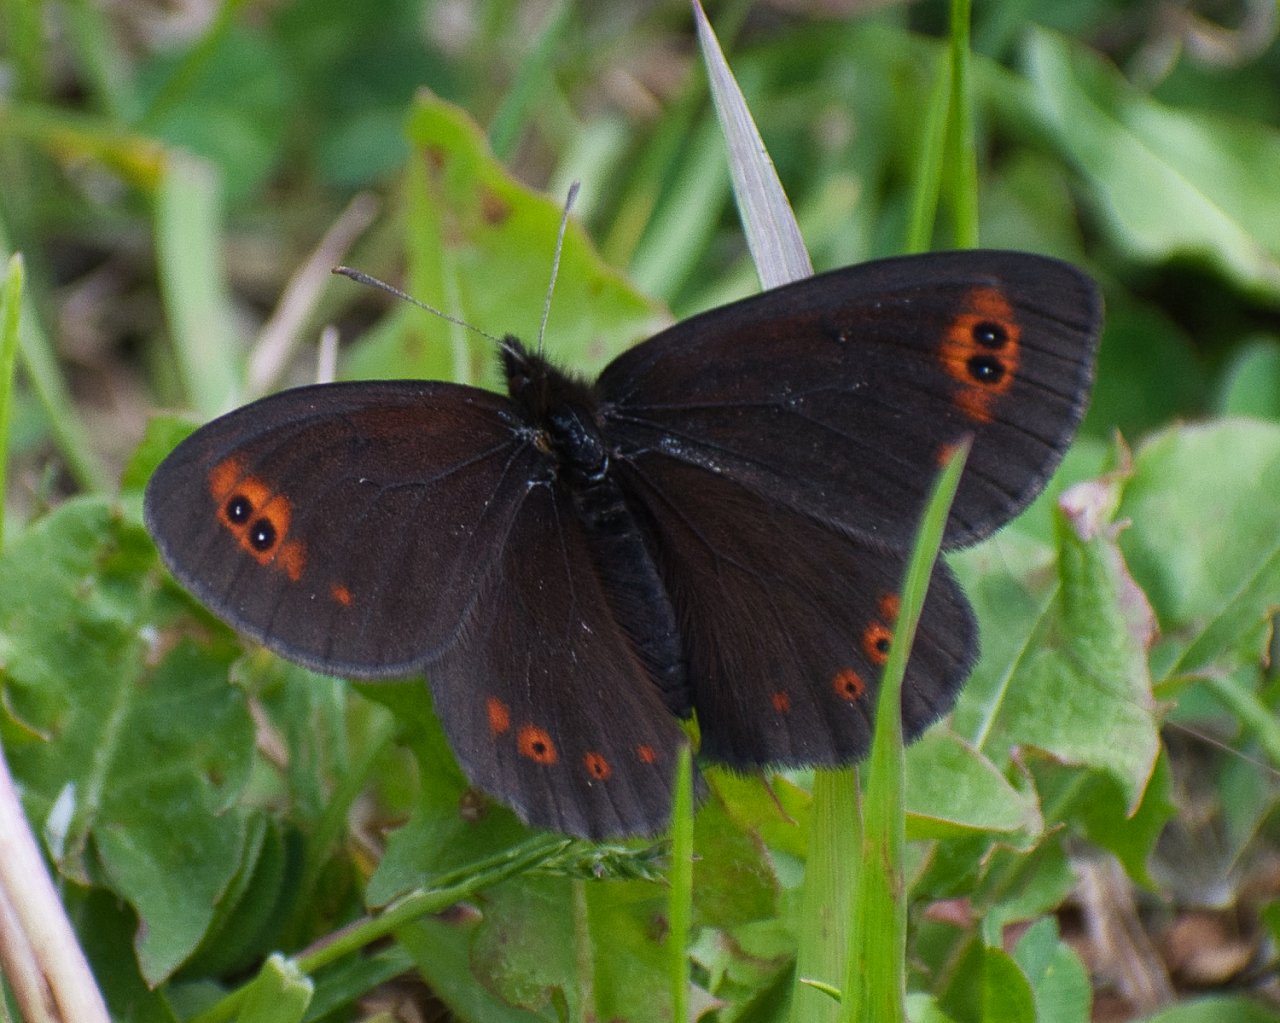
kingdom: Animalia
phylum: Arthropoda
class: Insecta
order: Lepidoptera
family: Nymphalidae
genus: Erebia
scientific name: Erebia epipsodea
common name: Common Alpine
